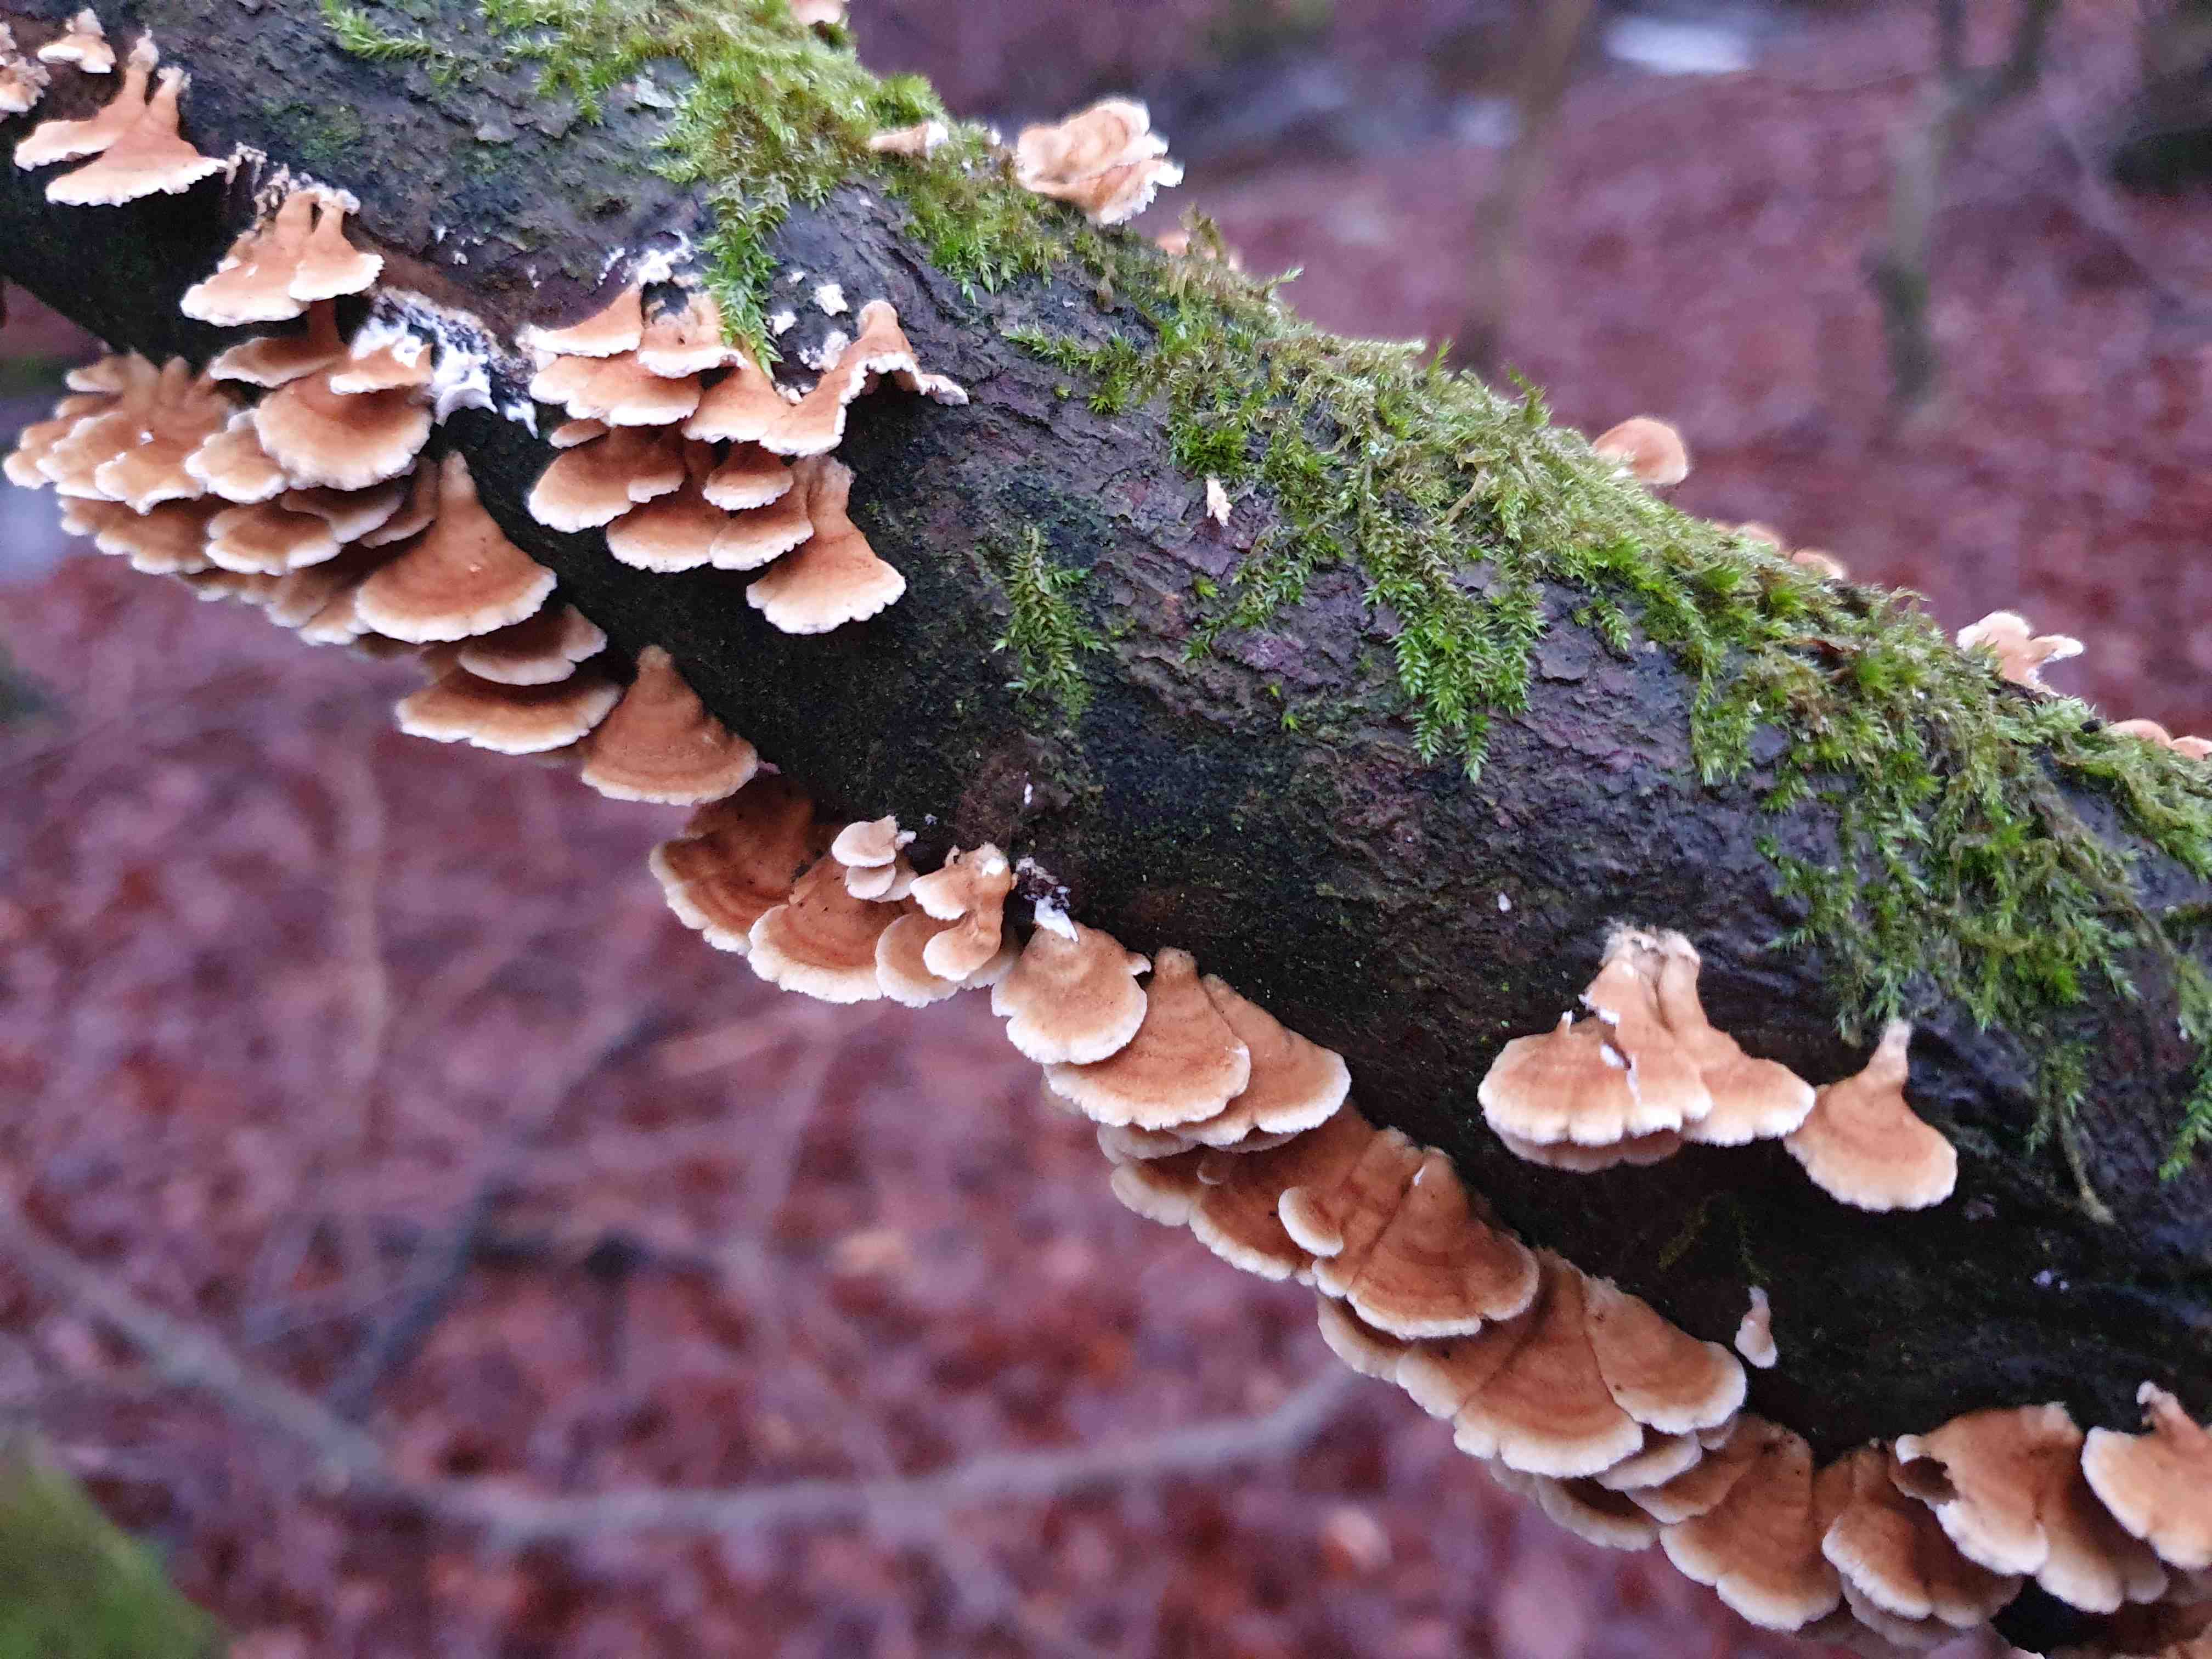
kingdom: Fungi
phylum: Basidiomycota
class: Agaricomycetes
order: Amylocorticiales
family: Amylocorticiaceae
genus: Plicaturopsis
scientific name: Plicaturopsis crispa
